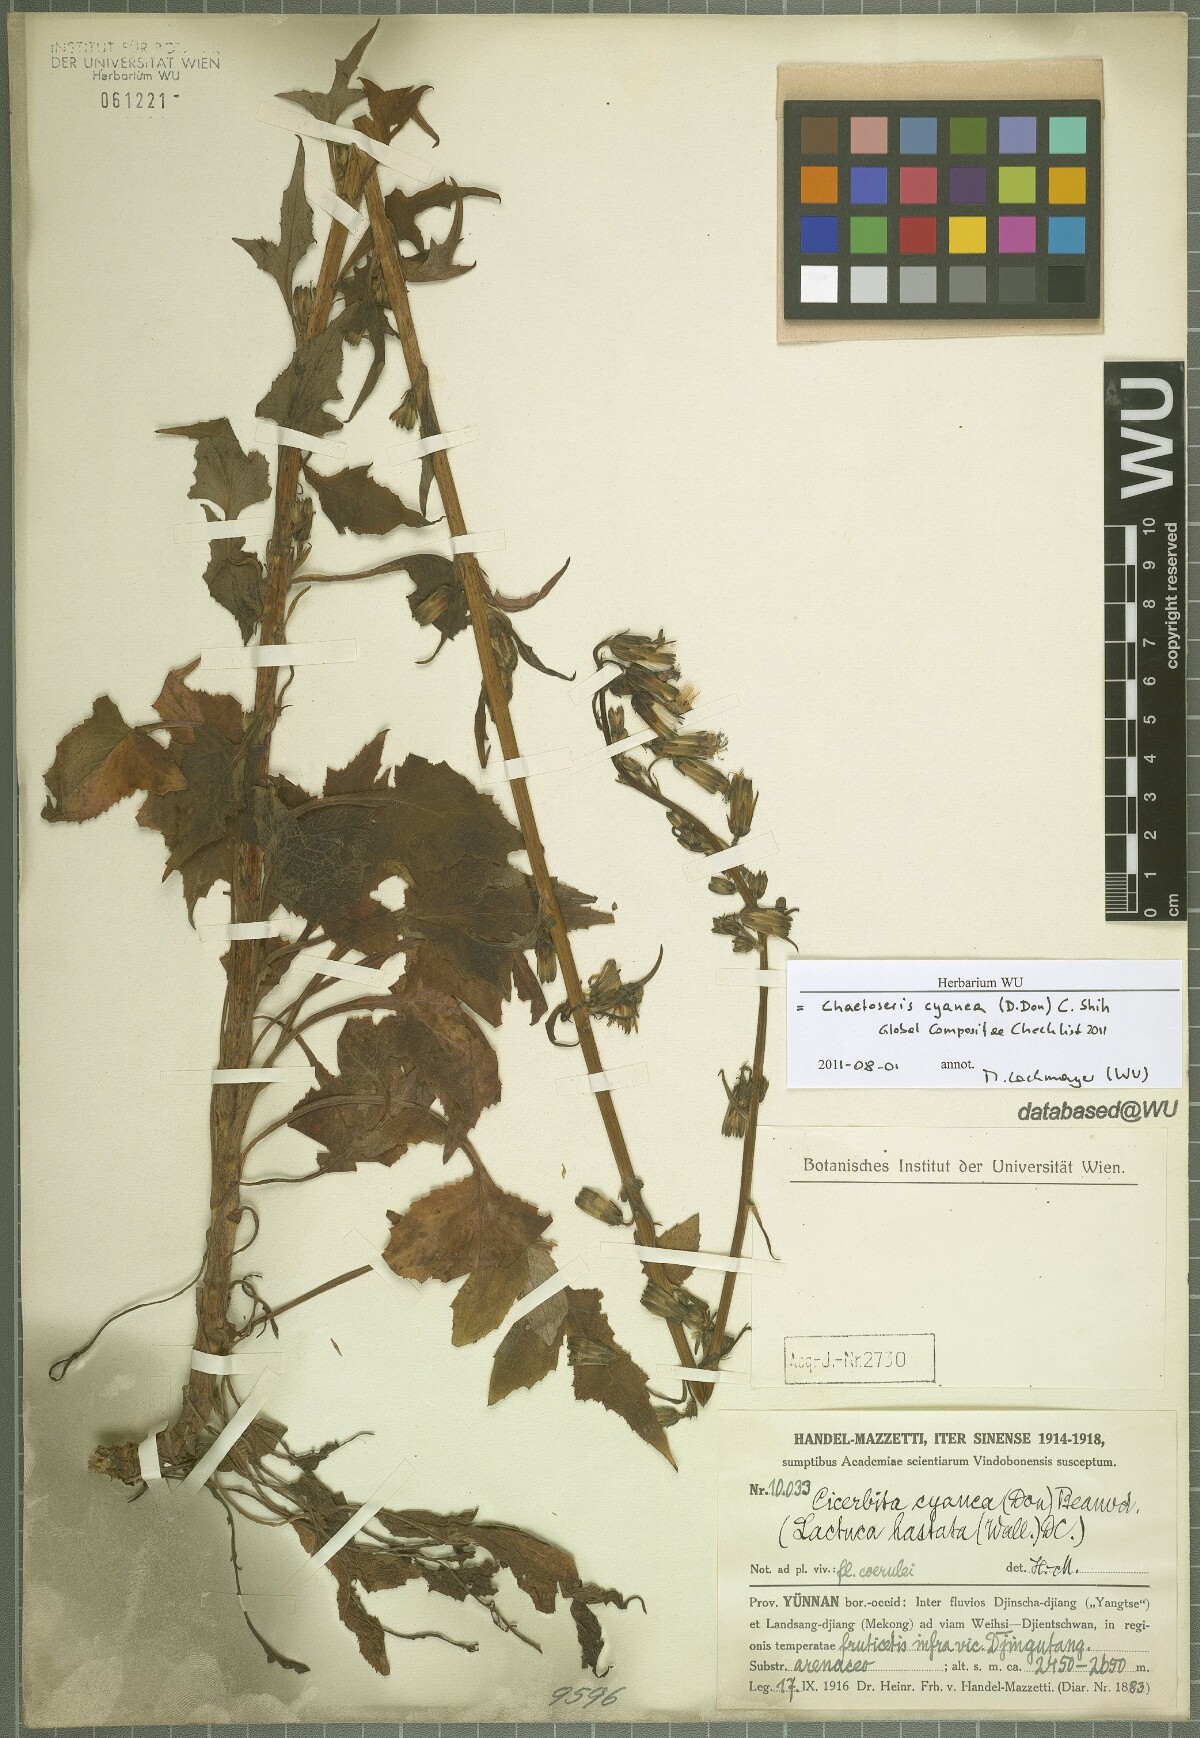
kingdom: Plantae
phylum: Tracheophyta
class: Magnoliopsida
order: Asterales
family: Asteraceae
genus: Melanoseris
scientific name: Melanoseris cyanea
